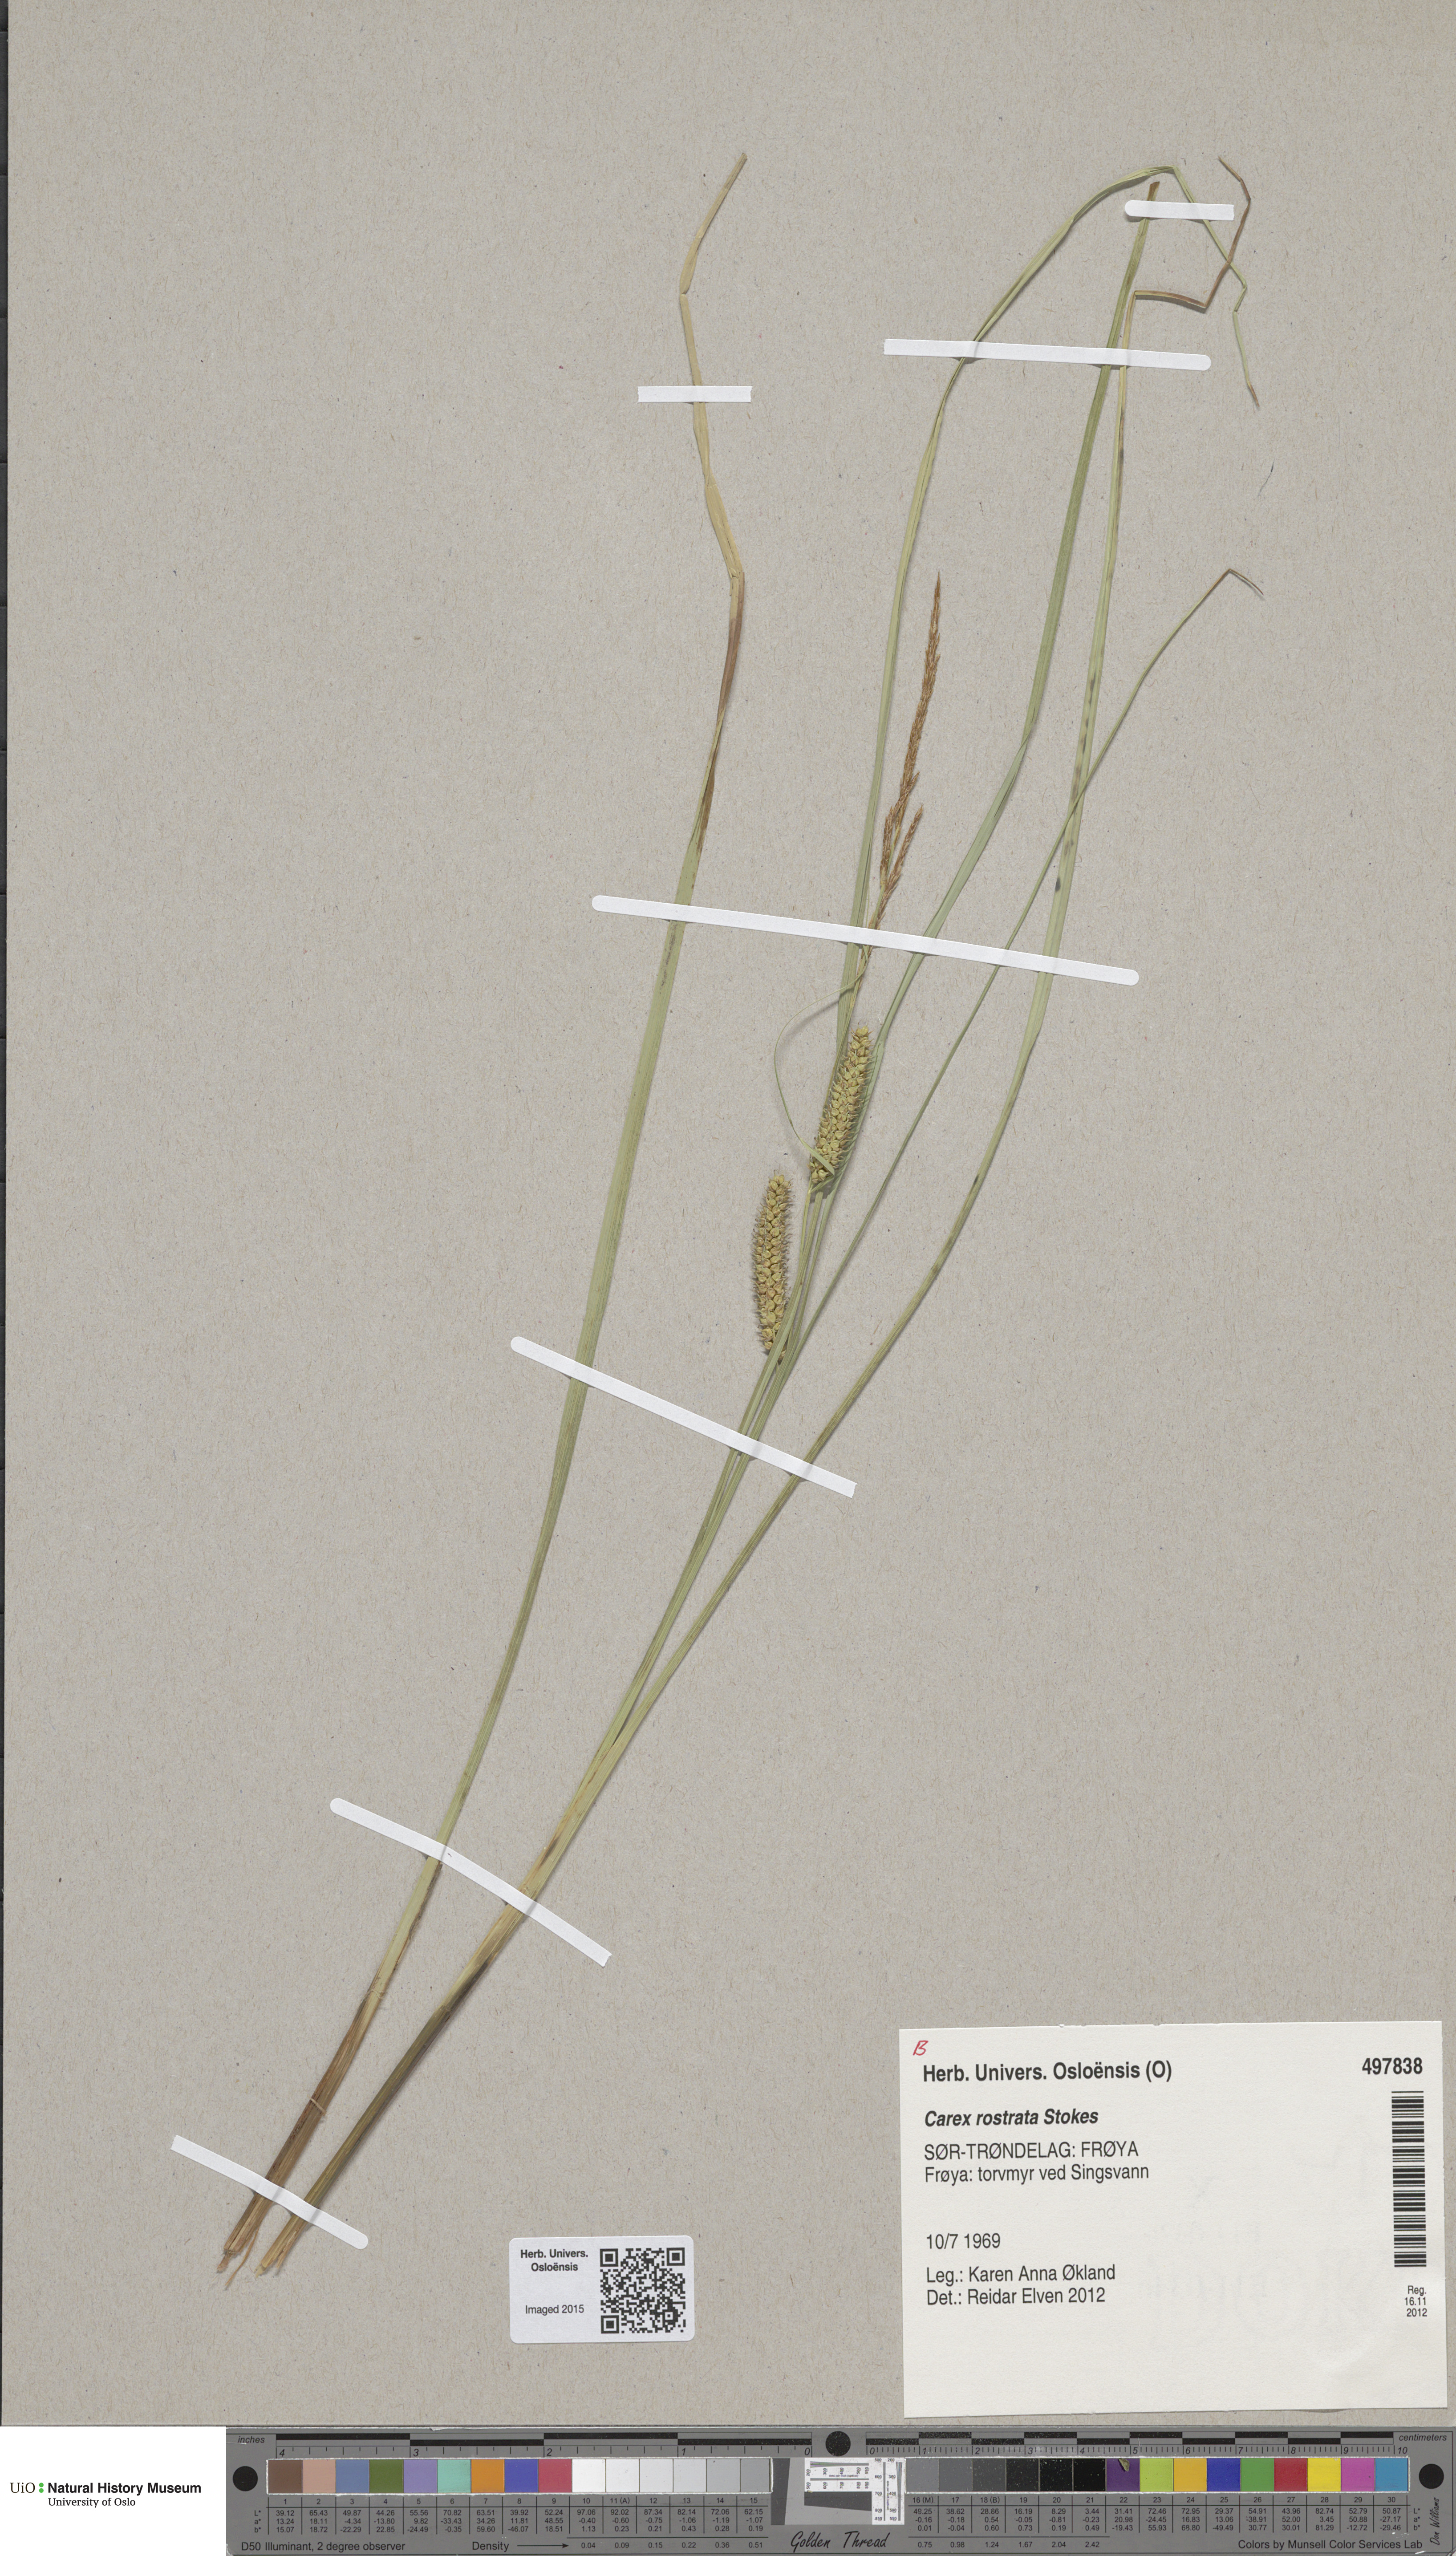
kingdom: Plantae
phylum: Tracheophyta
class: Liliopsida
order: Poales
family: Cyperaceae
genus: Carex
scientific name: Carex rostrata
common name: Bottle sedge
